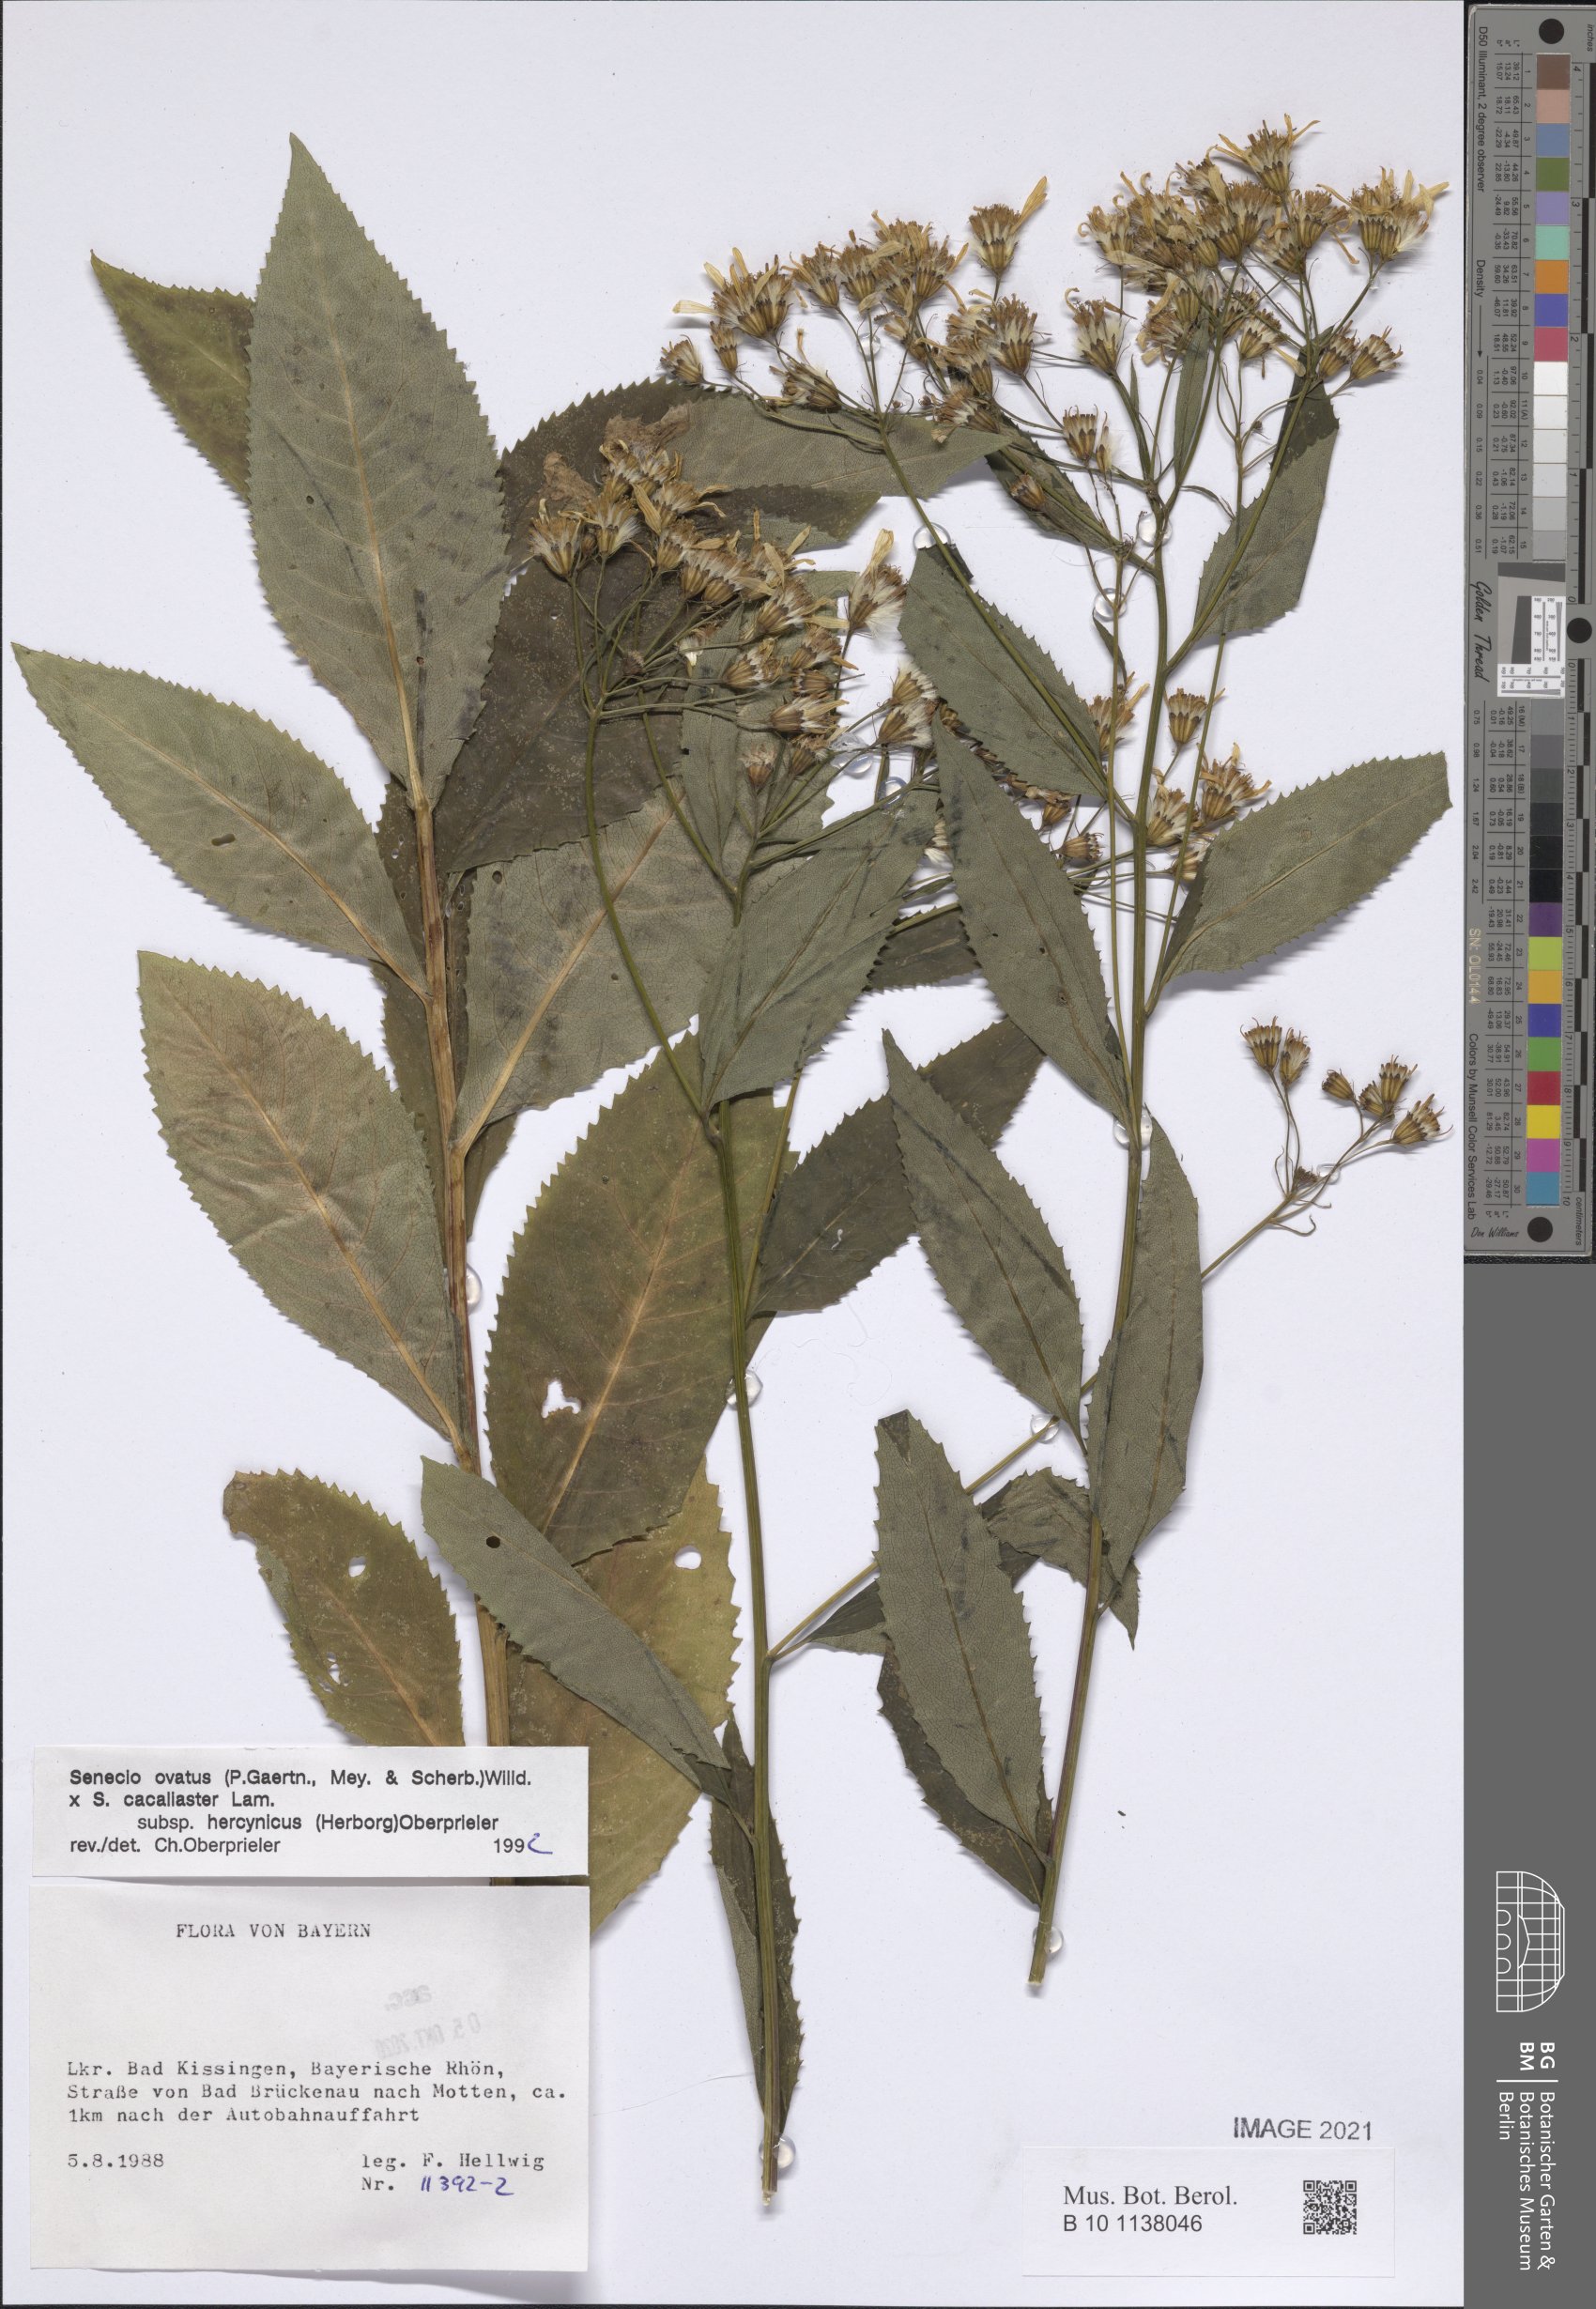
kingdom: Plantae
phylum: Tracheophyta
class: Magnoliopsida
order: Asterales
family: Asteraceae
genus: Senecio
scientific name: Senecio ovatus
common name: Wood ragwort
